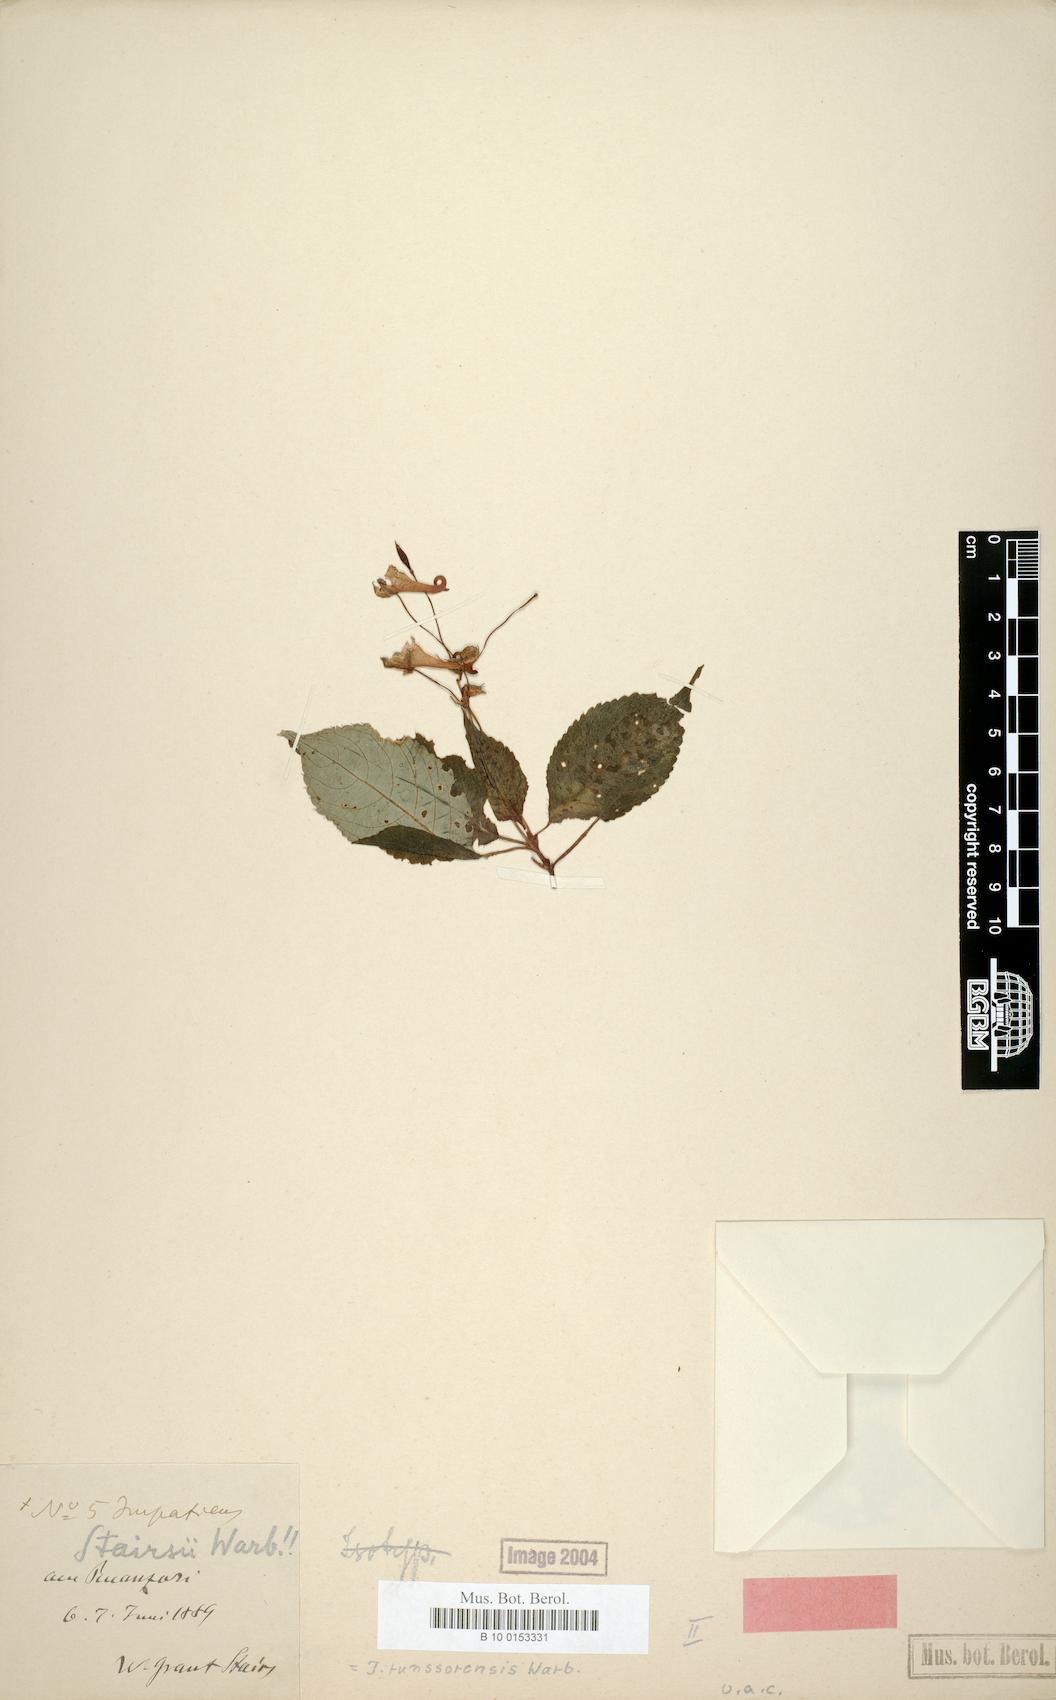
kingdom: Plantae
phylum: Tracheophyta
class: Magnoliopsida
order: Ericales
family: Balsaminaceae
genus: Impatiens
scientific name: Impatiens runssorensis
